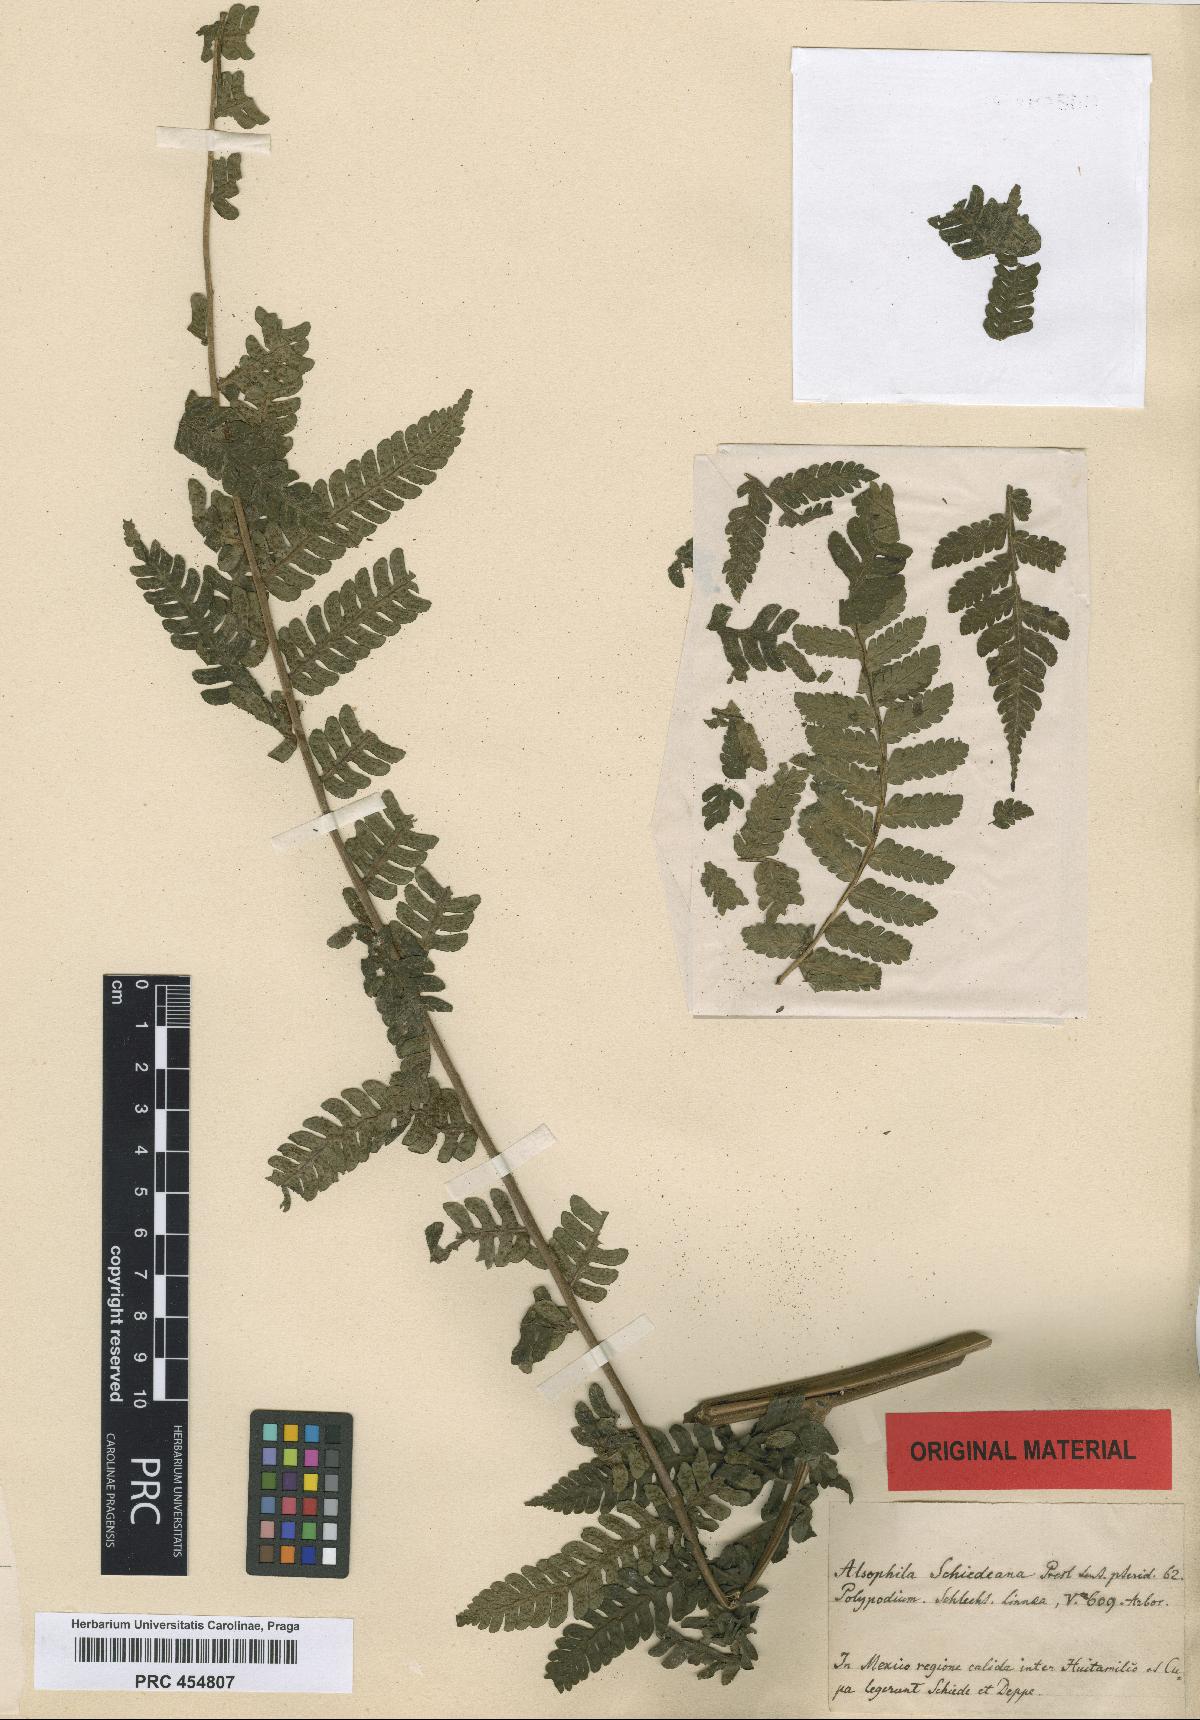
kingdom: Plantae
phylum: Tracheophyta
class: Polypodiopsida
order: Cyatheales
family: Cyatheaceae
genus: Cyathea
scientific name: Cyathea schiedeana
